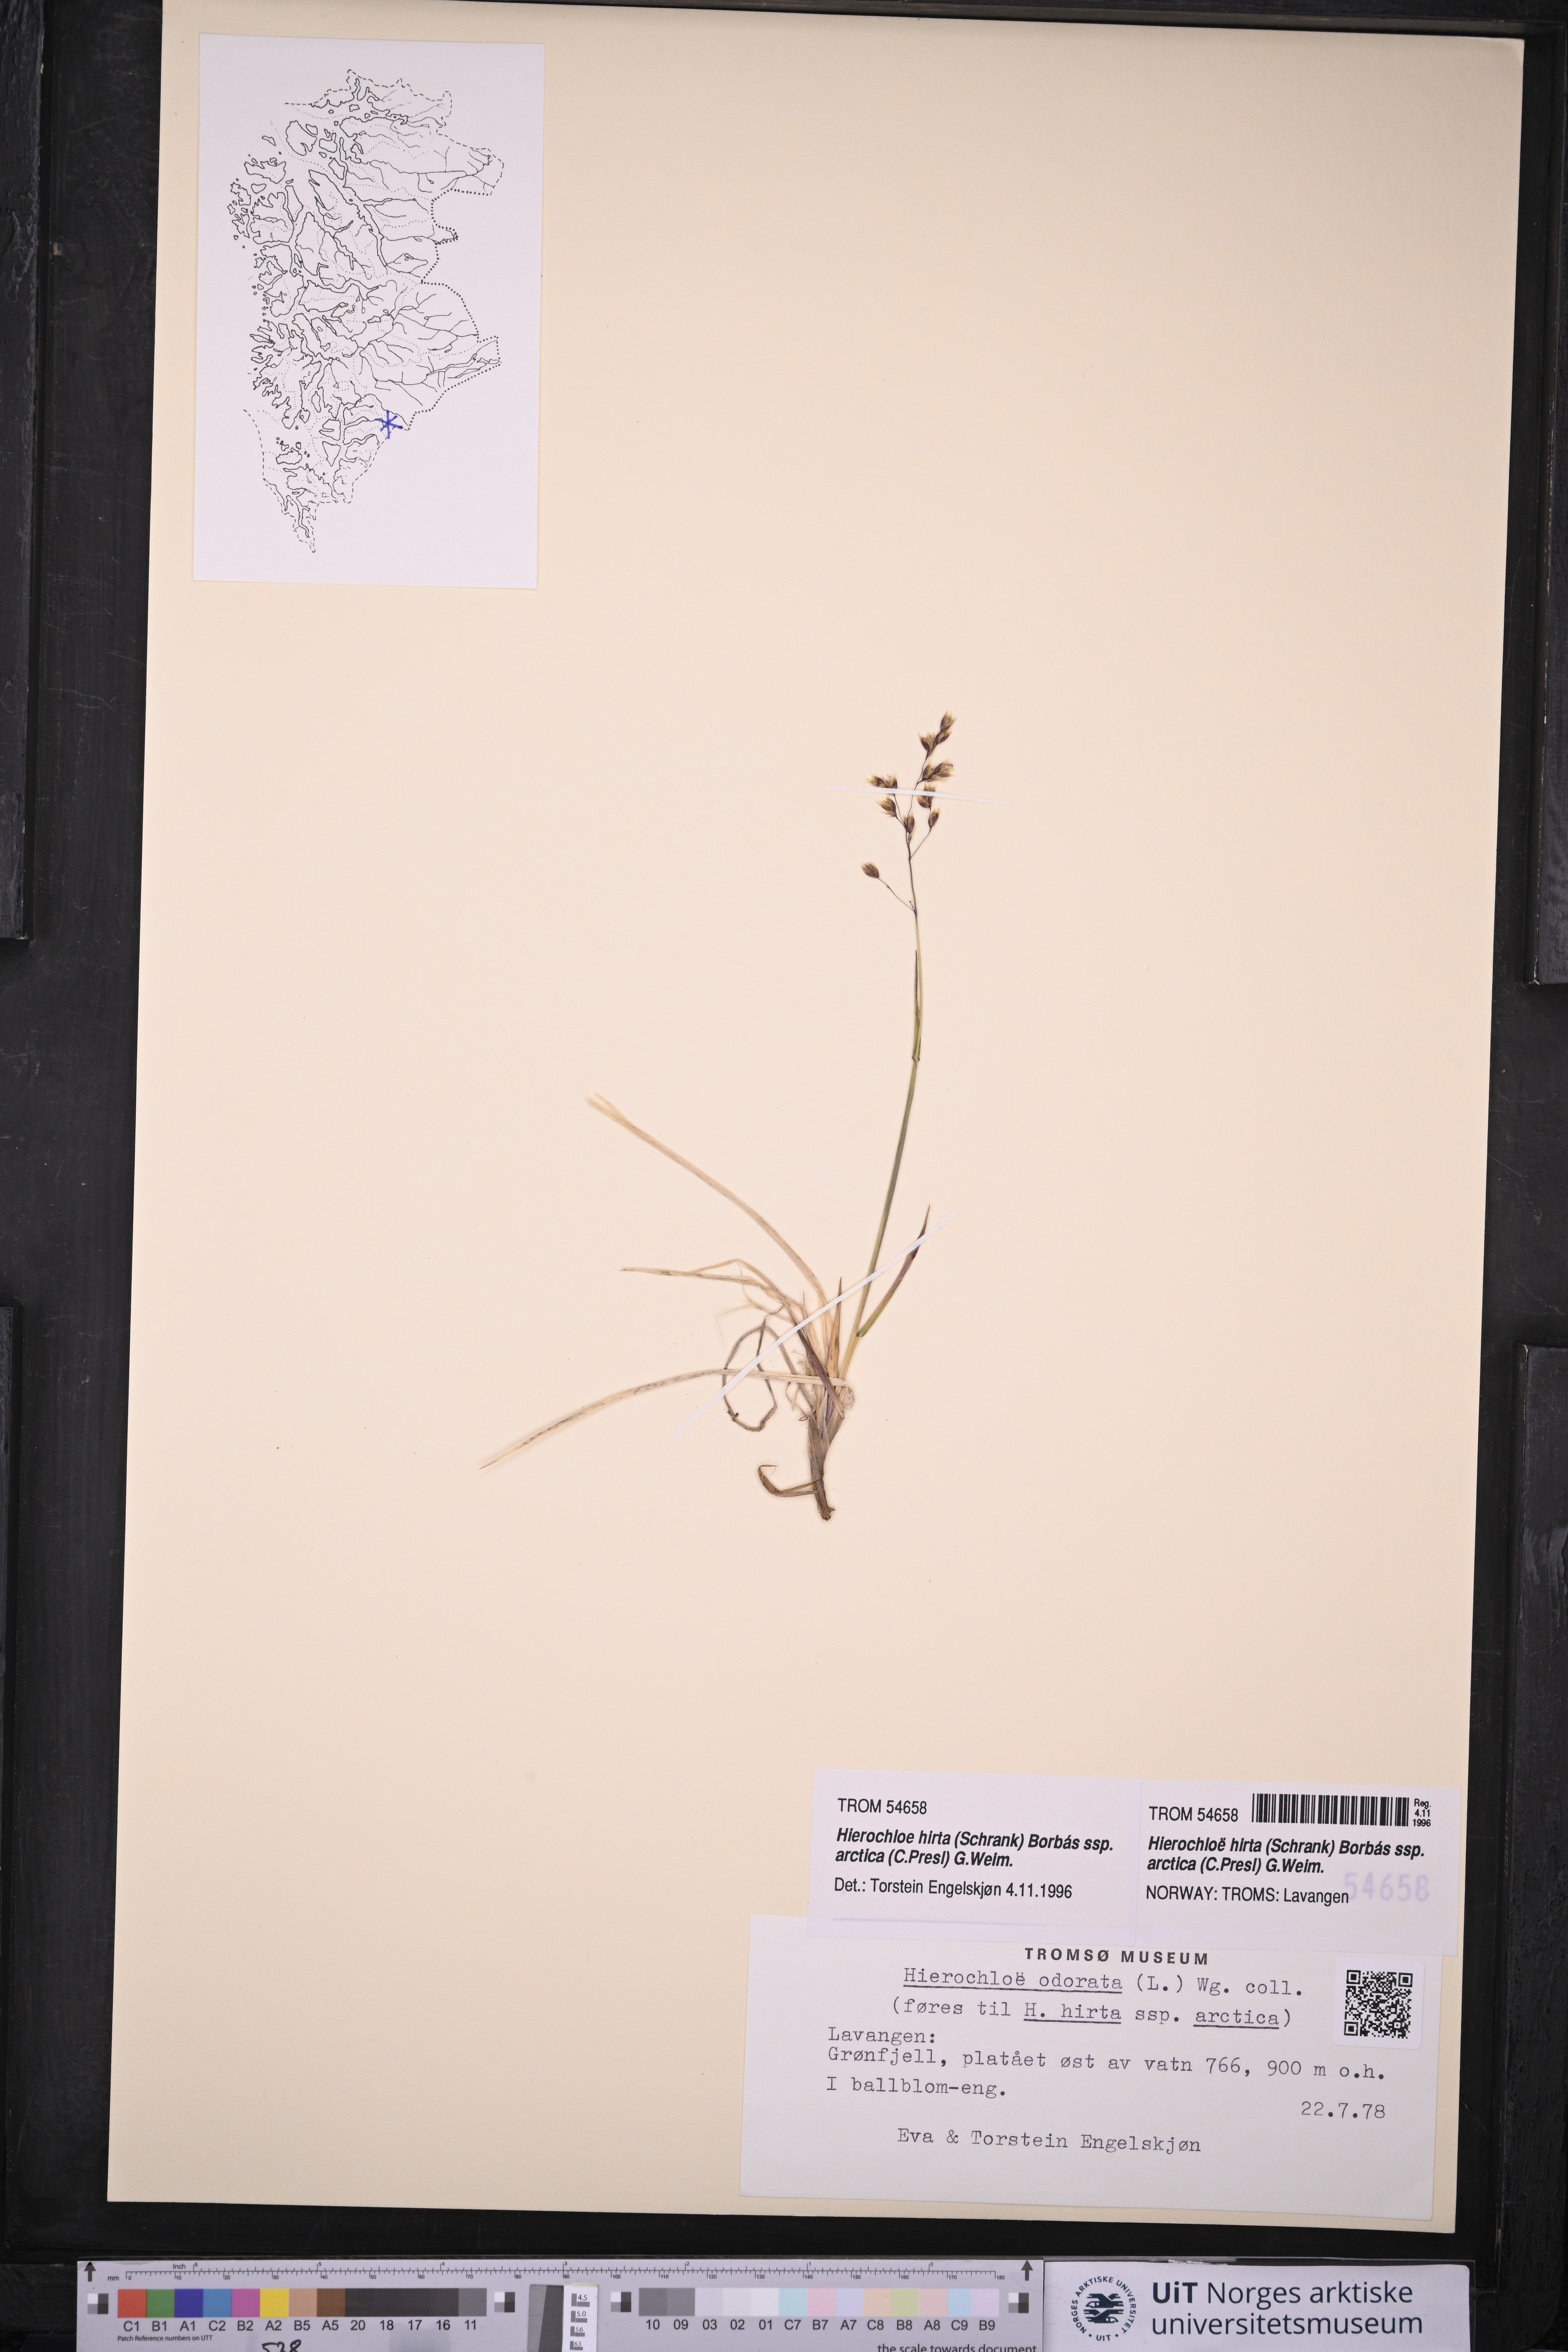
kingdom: Plantae
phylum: Tracheophyta
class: Liliopsida
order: Poales
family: Poaceae
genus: Anthoxanthum
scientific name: Anthoxanthum nitens
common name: Holy grass
